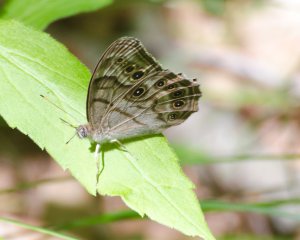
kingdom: Animalia
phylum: Arthropoda
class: Insecta
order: Lepidoptera
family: Nymphalidae
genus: Lethe
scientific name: Lethe anthedon
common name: Northern Pearly-Eye
